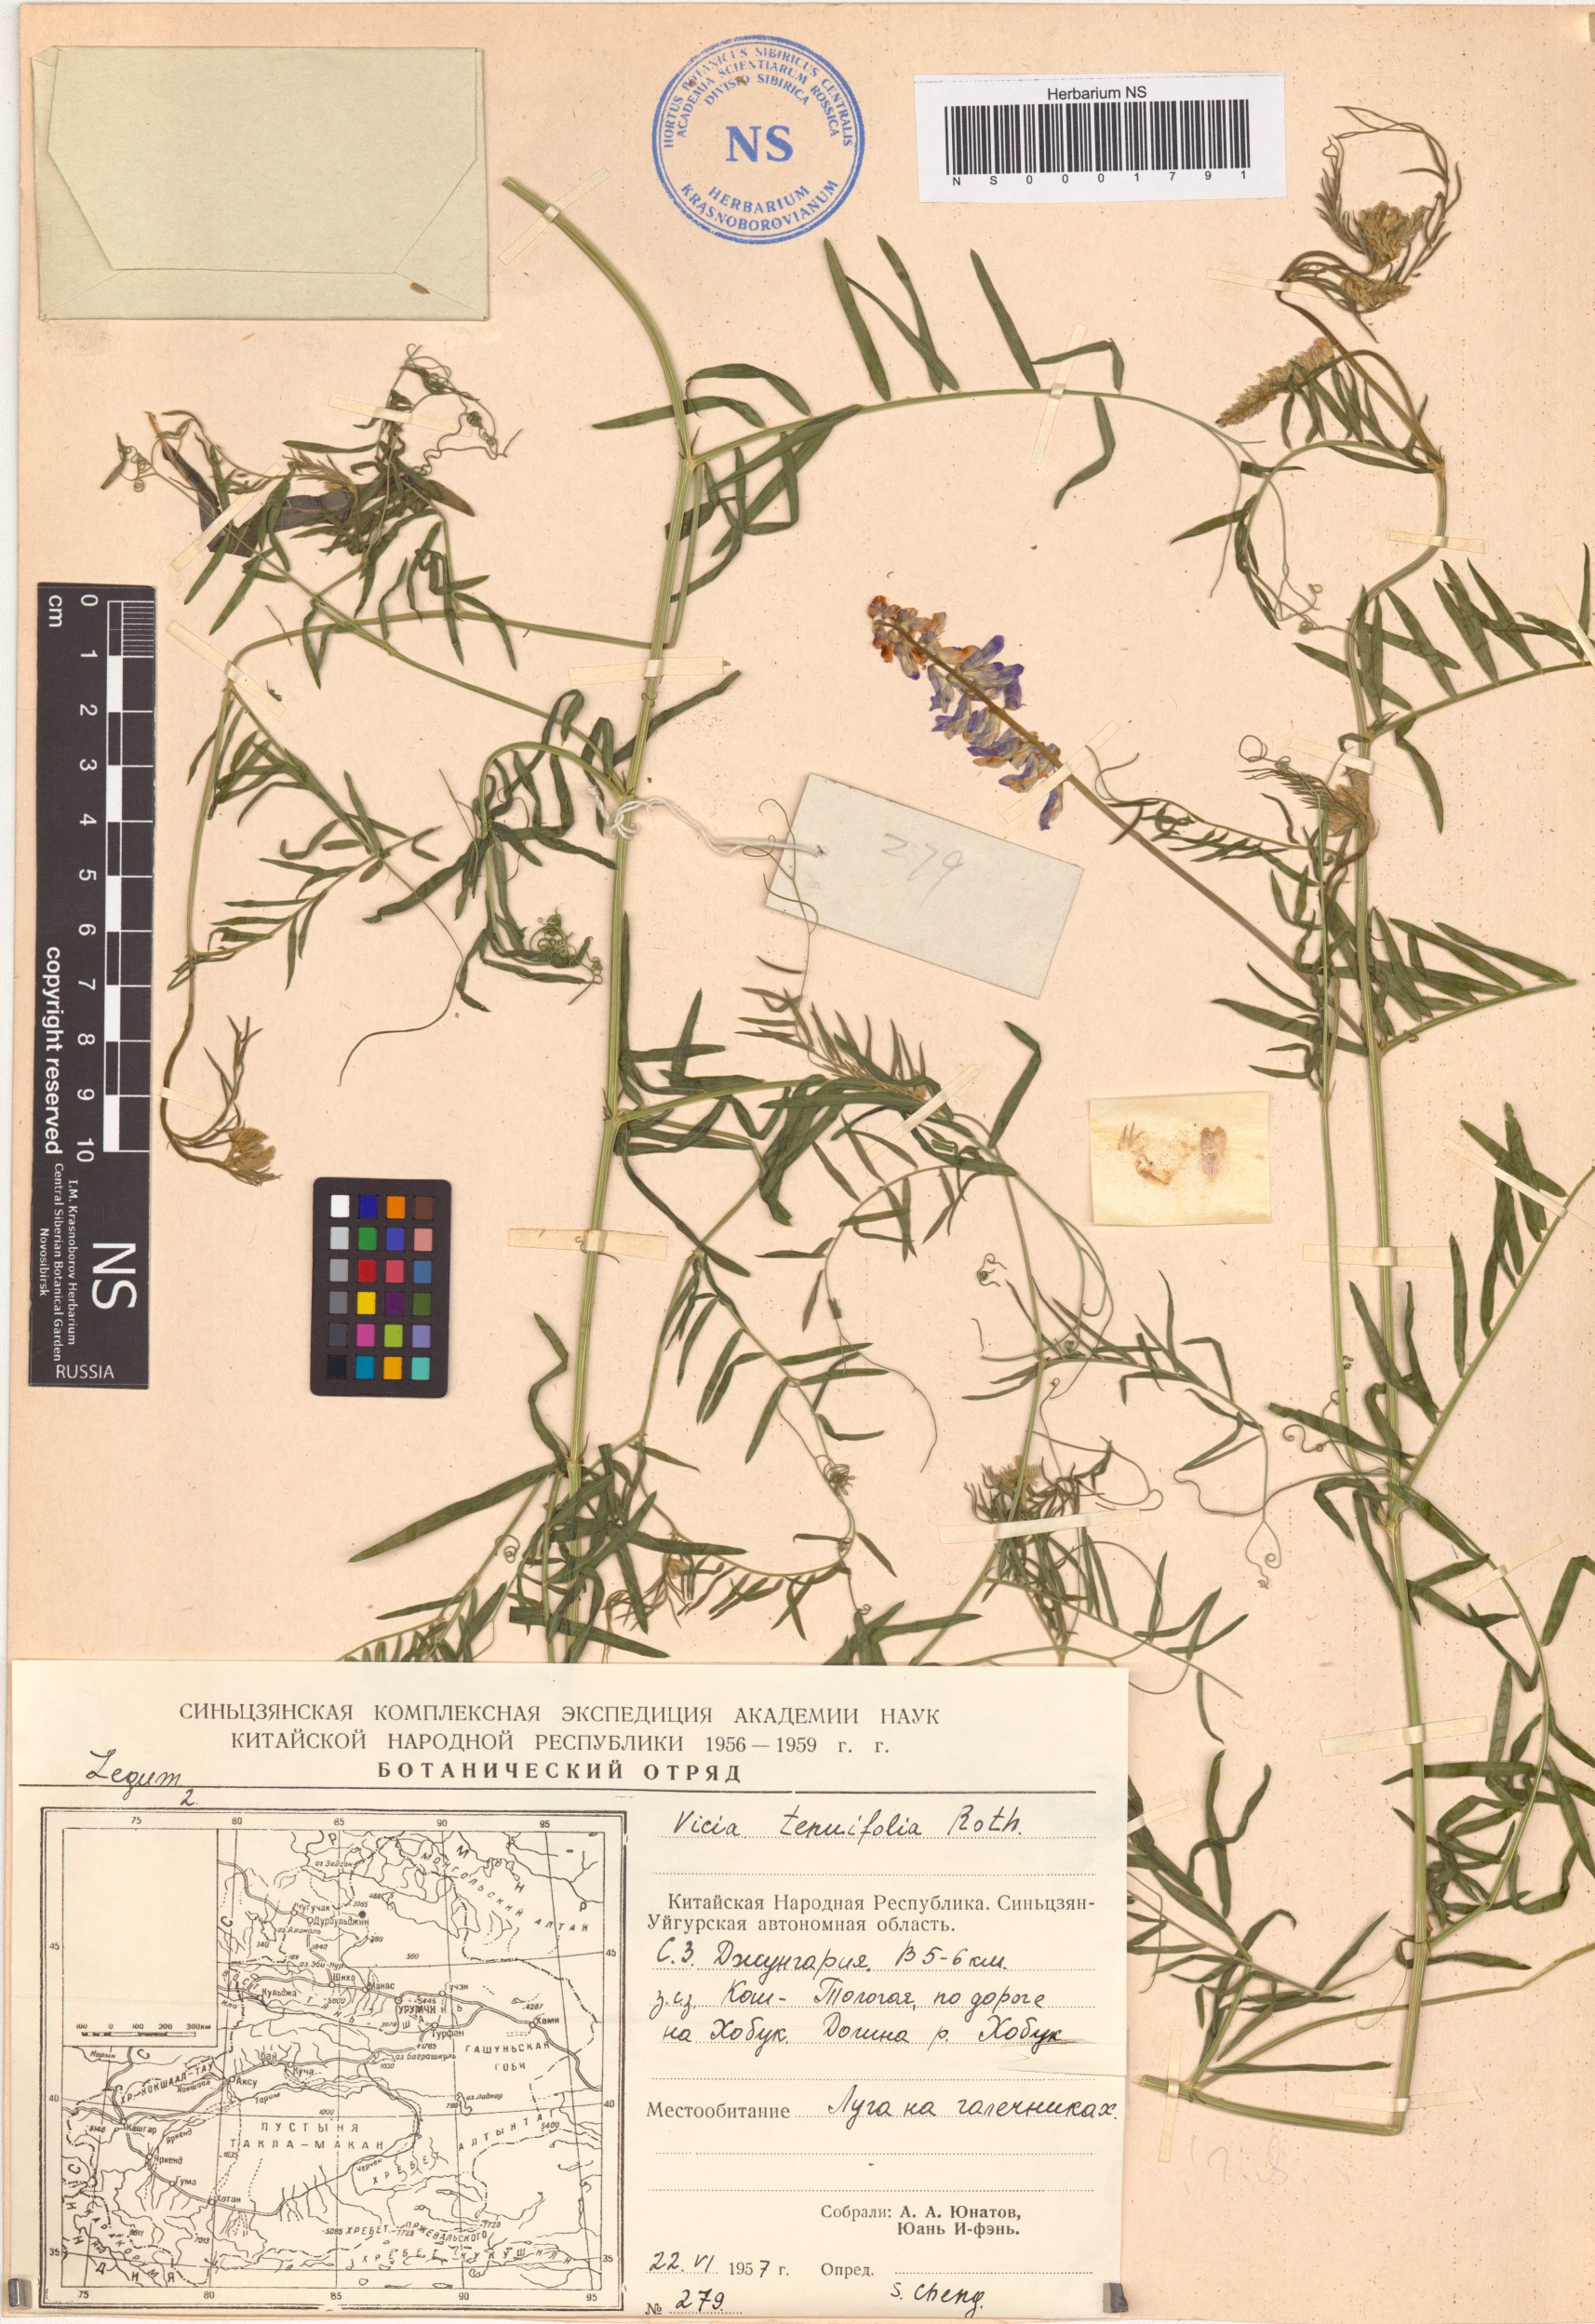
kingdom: Plantae
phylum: Tracheophyta
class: Magnoliopsida
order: Fabales
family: Fabaceae
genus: Vicia
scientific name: Vicia tenuifolia
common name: Fine-leaved vetch
